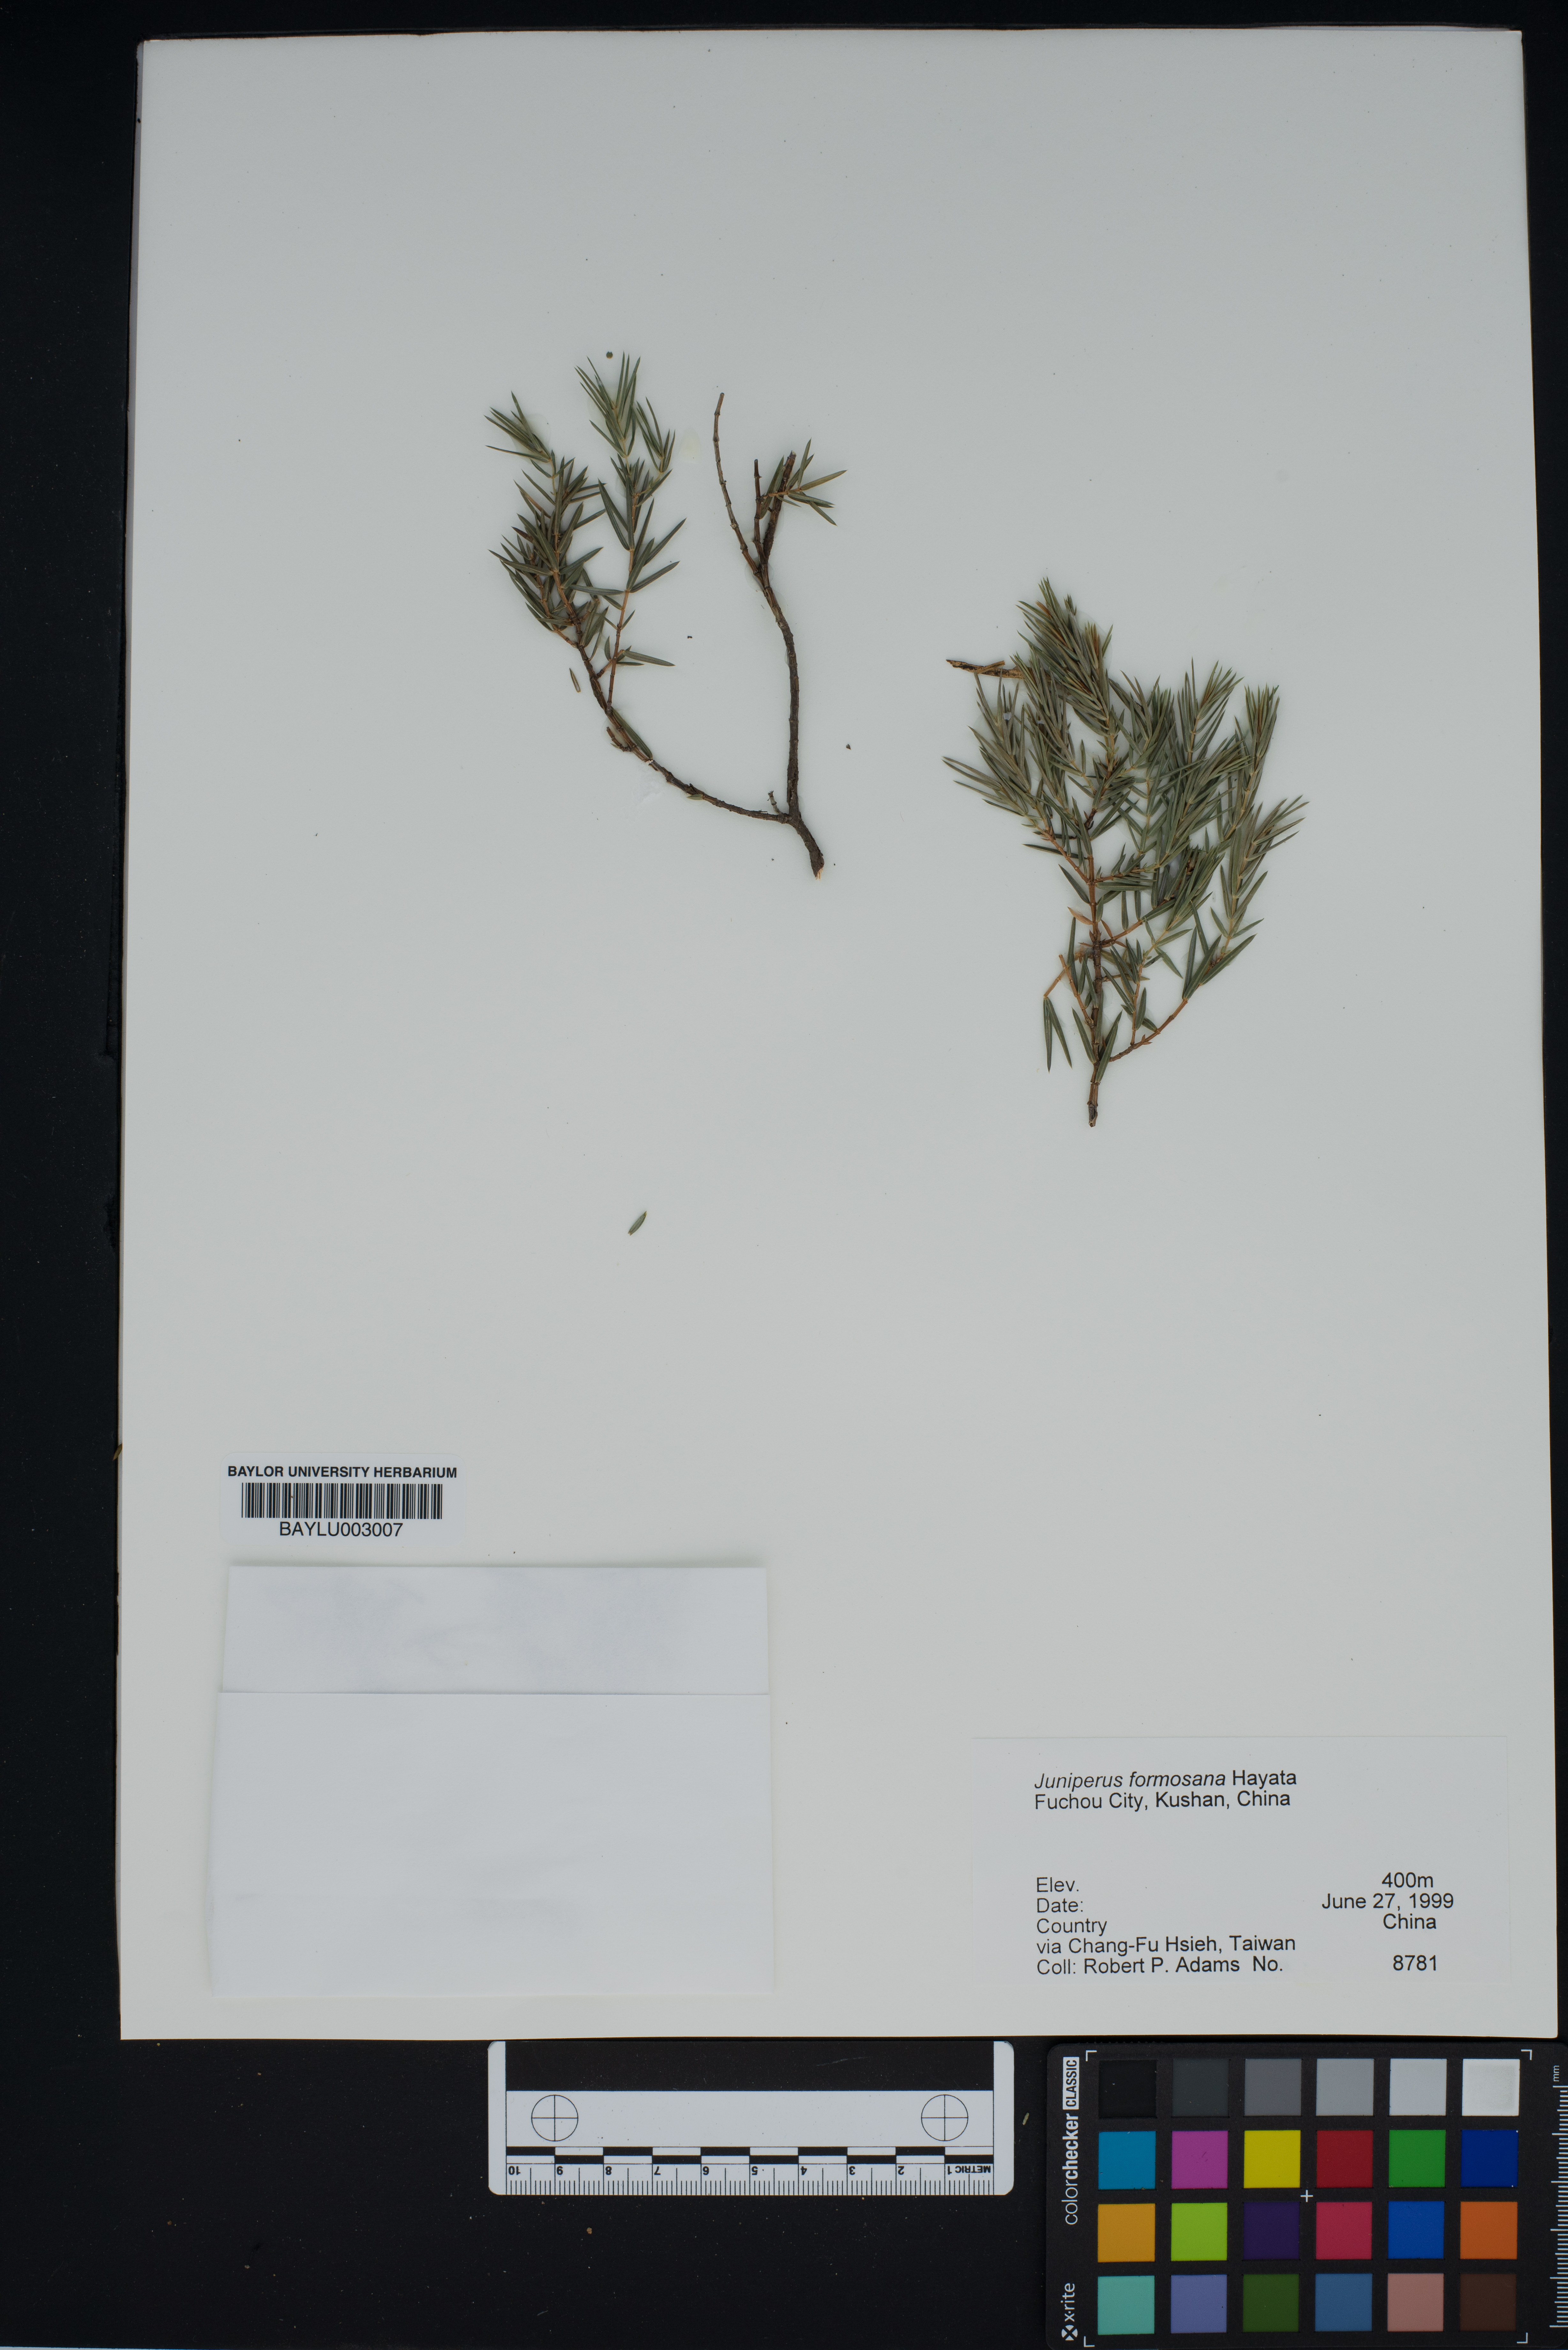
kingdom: Plantae
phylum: Tracheophyta
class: Pinopsida
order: Pinales
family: Cupressaceae
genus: Juniperus
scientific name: Juniperus formosana
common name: Formosan juniper
